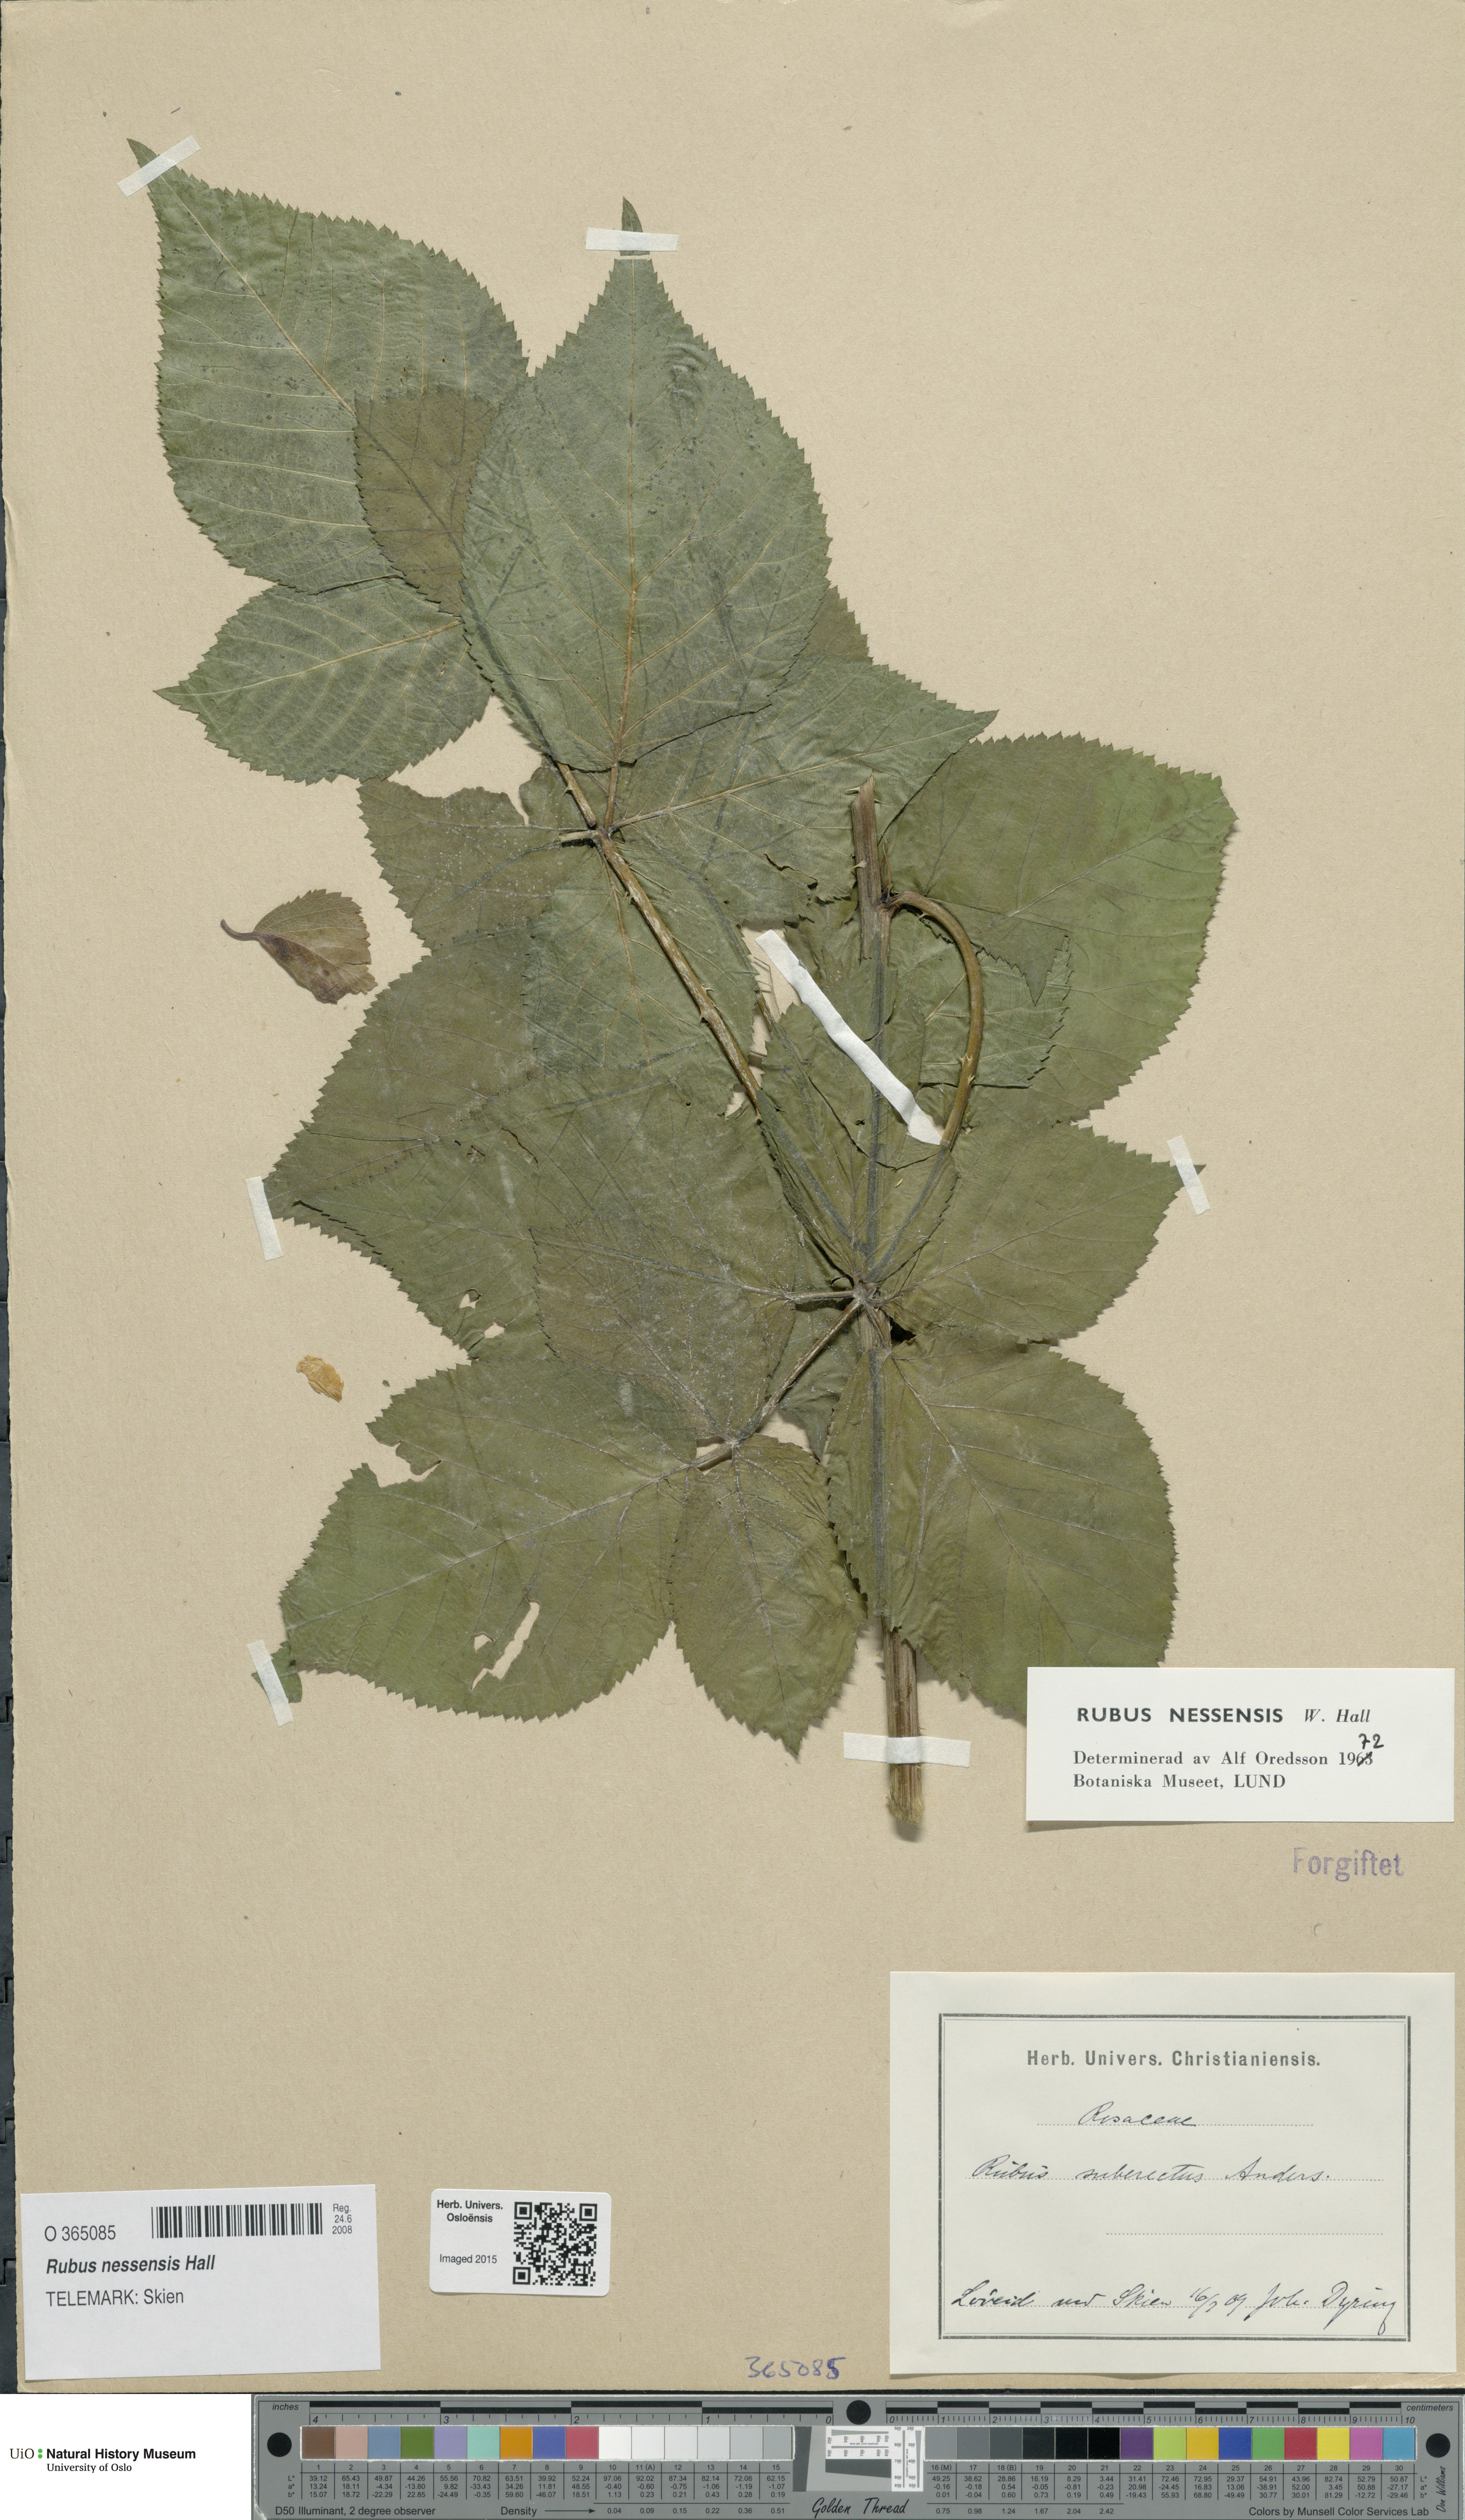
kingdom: Plantae
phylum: Tracheophyta
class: Magnoliopsida
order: Rosales
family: Rosaceae
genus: Rubus
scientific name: Rubus polonicus
